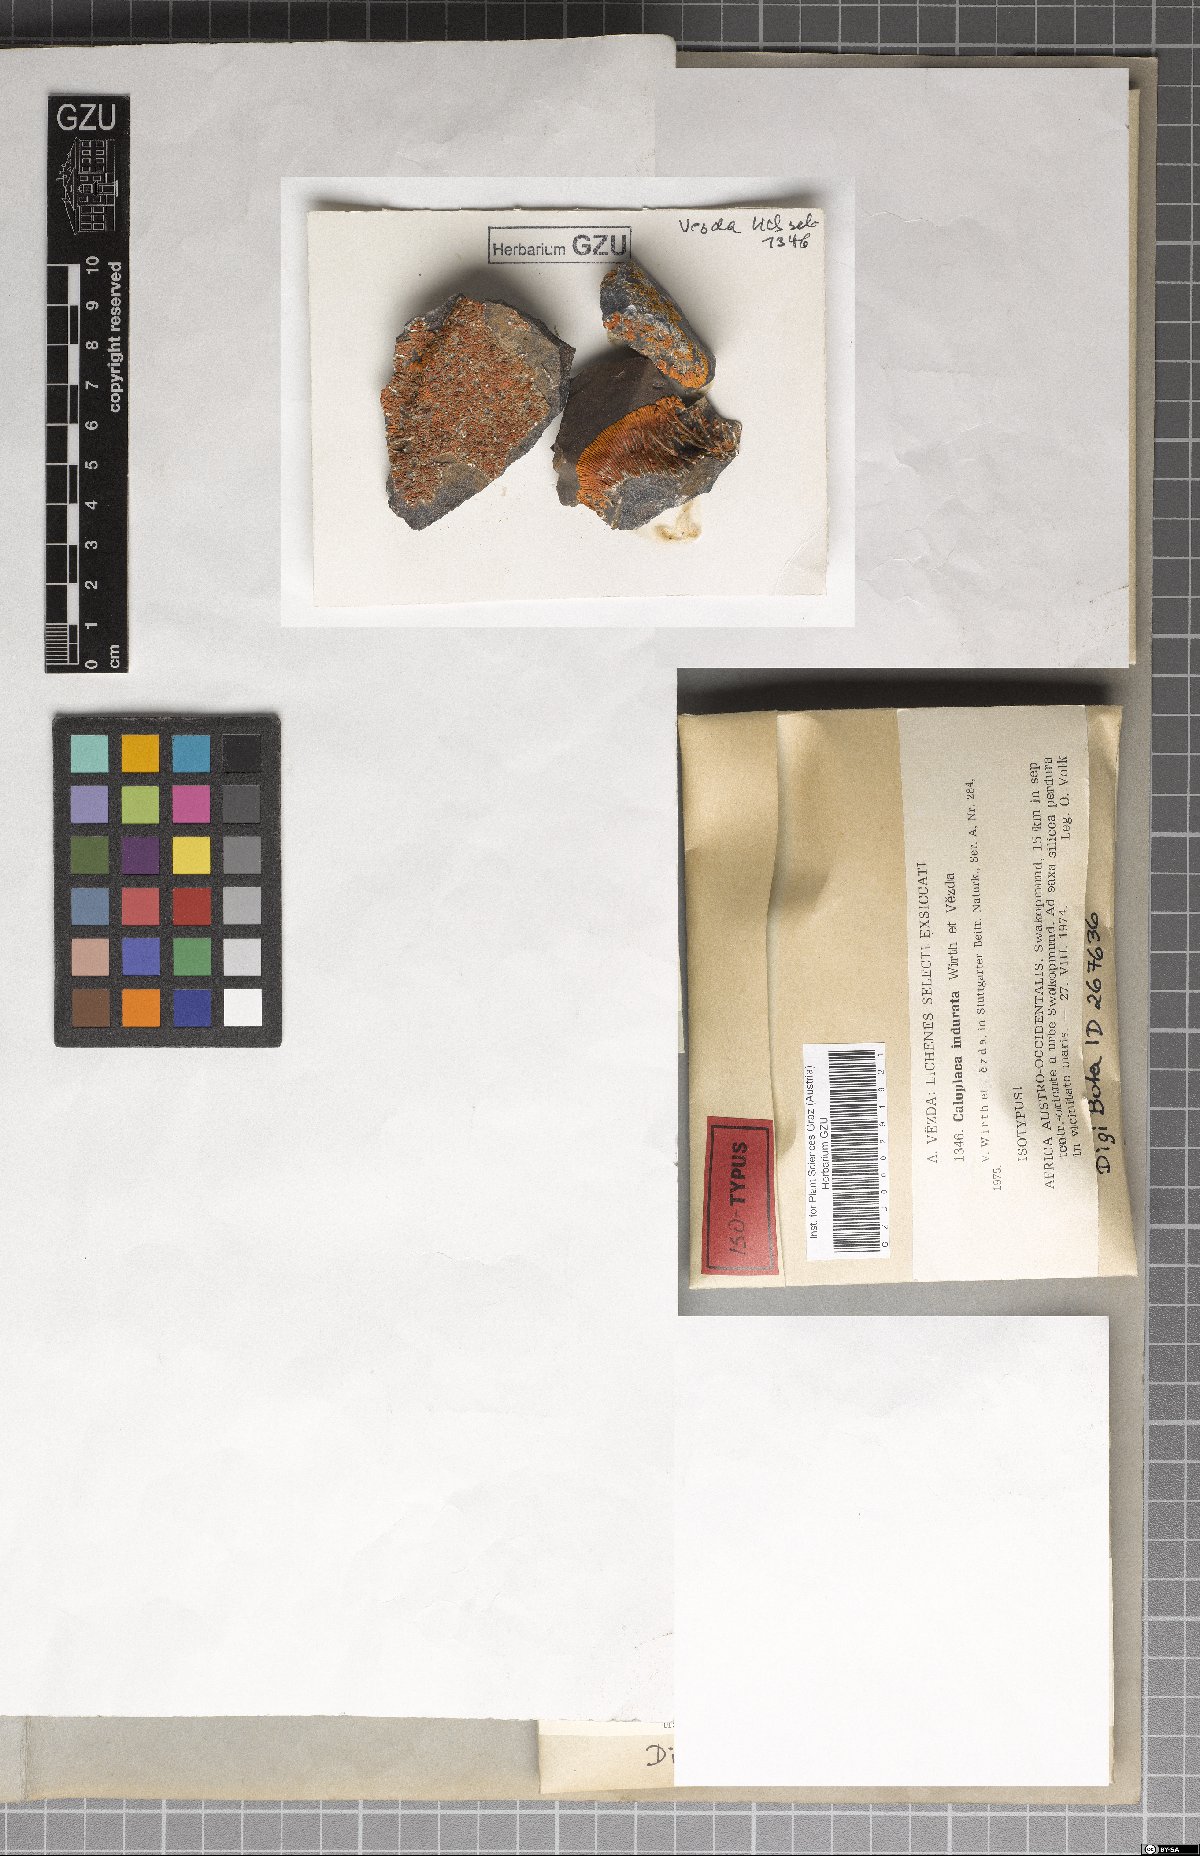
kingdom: Fungi
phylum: Ascomycota
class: Lecanoromycetes
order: Teloschistales
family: Teloschistaceae
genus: Caloplaca
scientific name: Caloplaca
